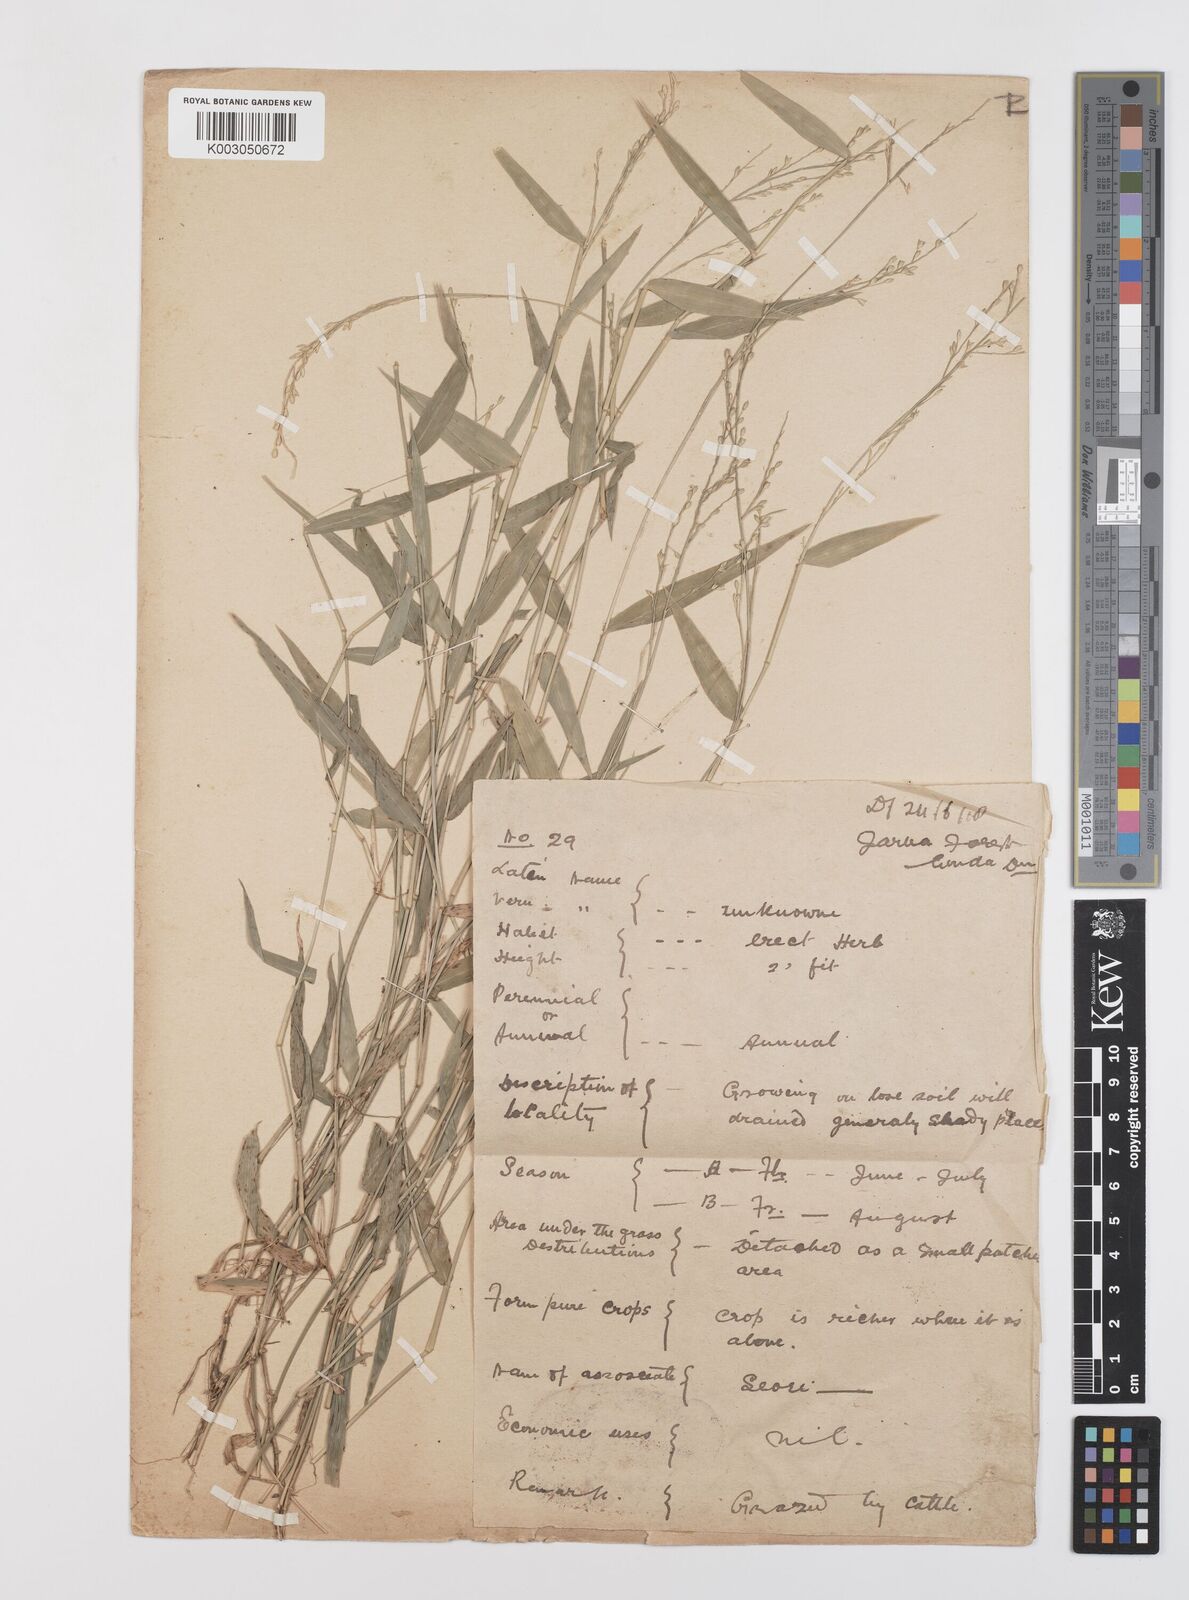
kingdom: Plantae
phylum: Tracheophyta
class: Liliopsida
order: Poales
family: Poaceae
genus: Urochloa
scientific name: Urochloa kurzii
